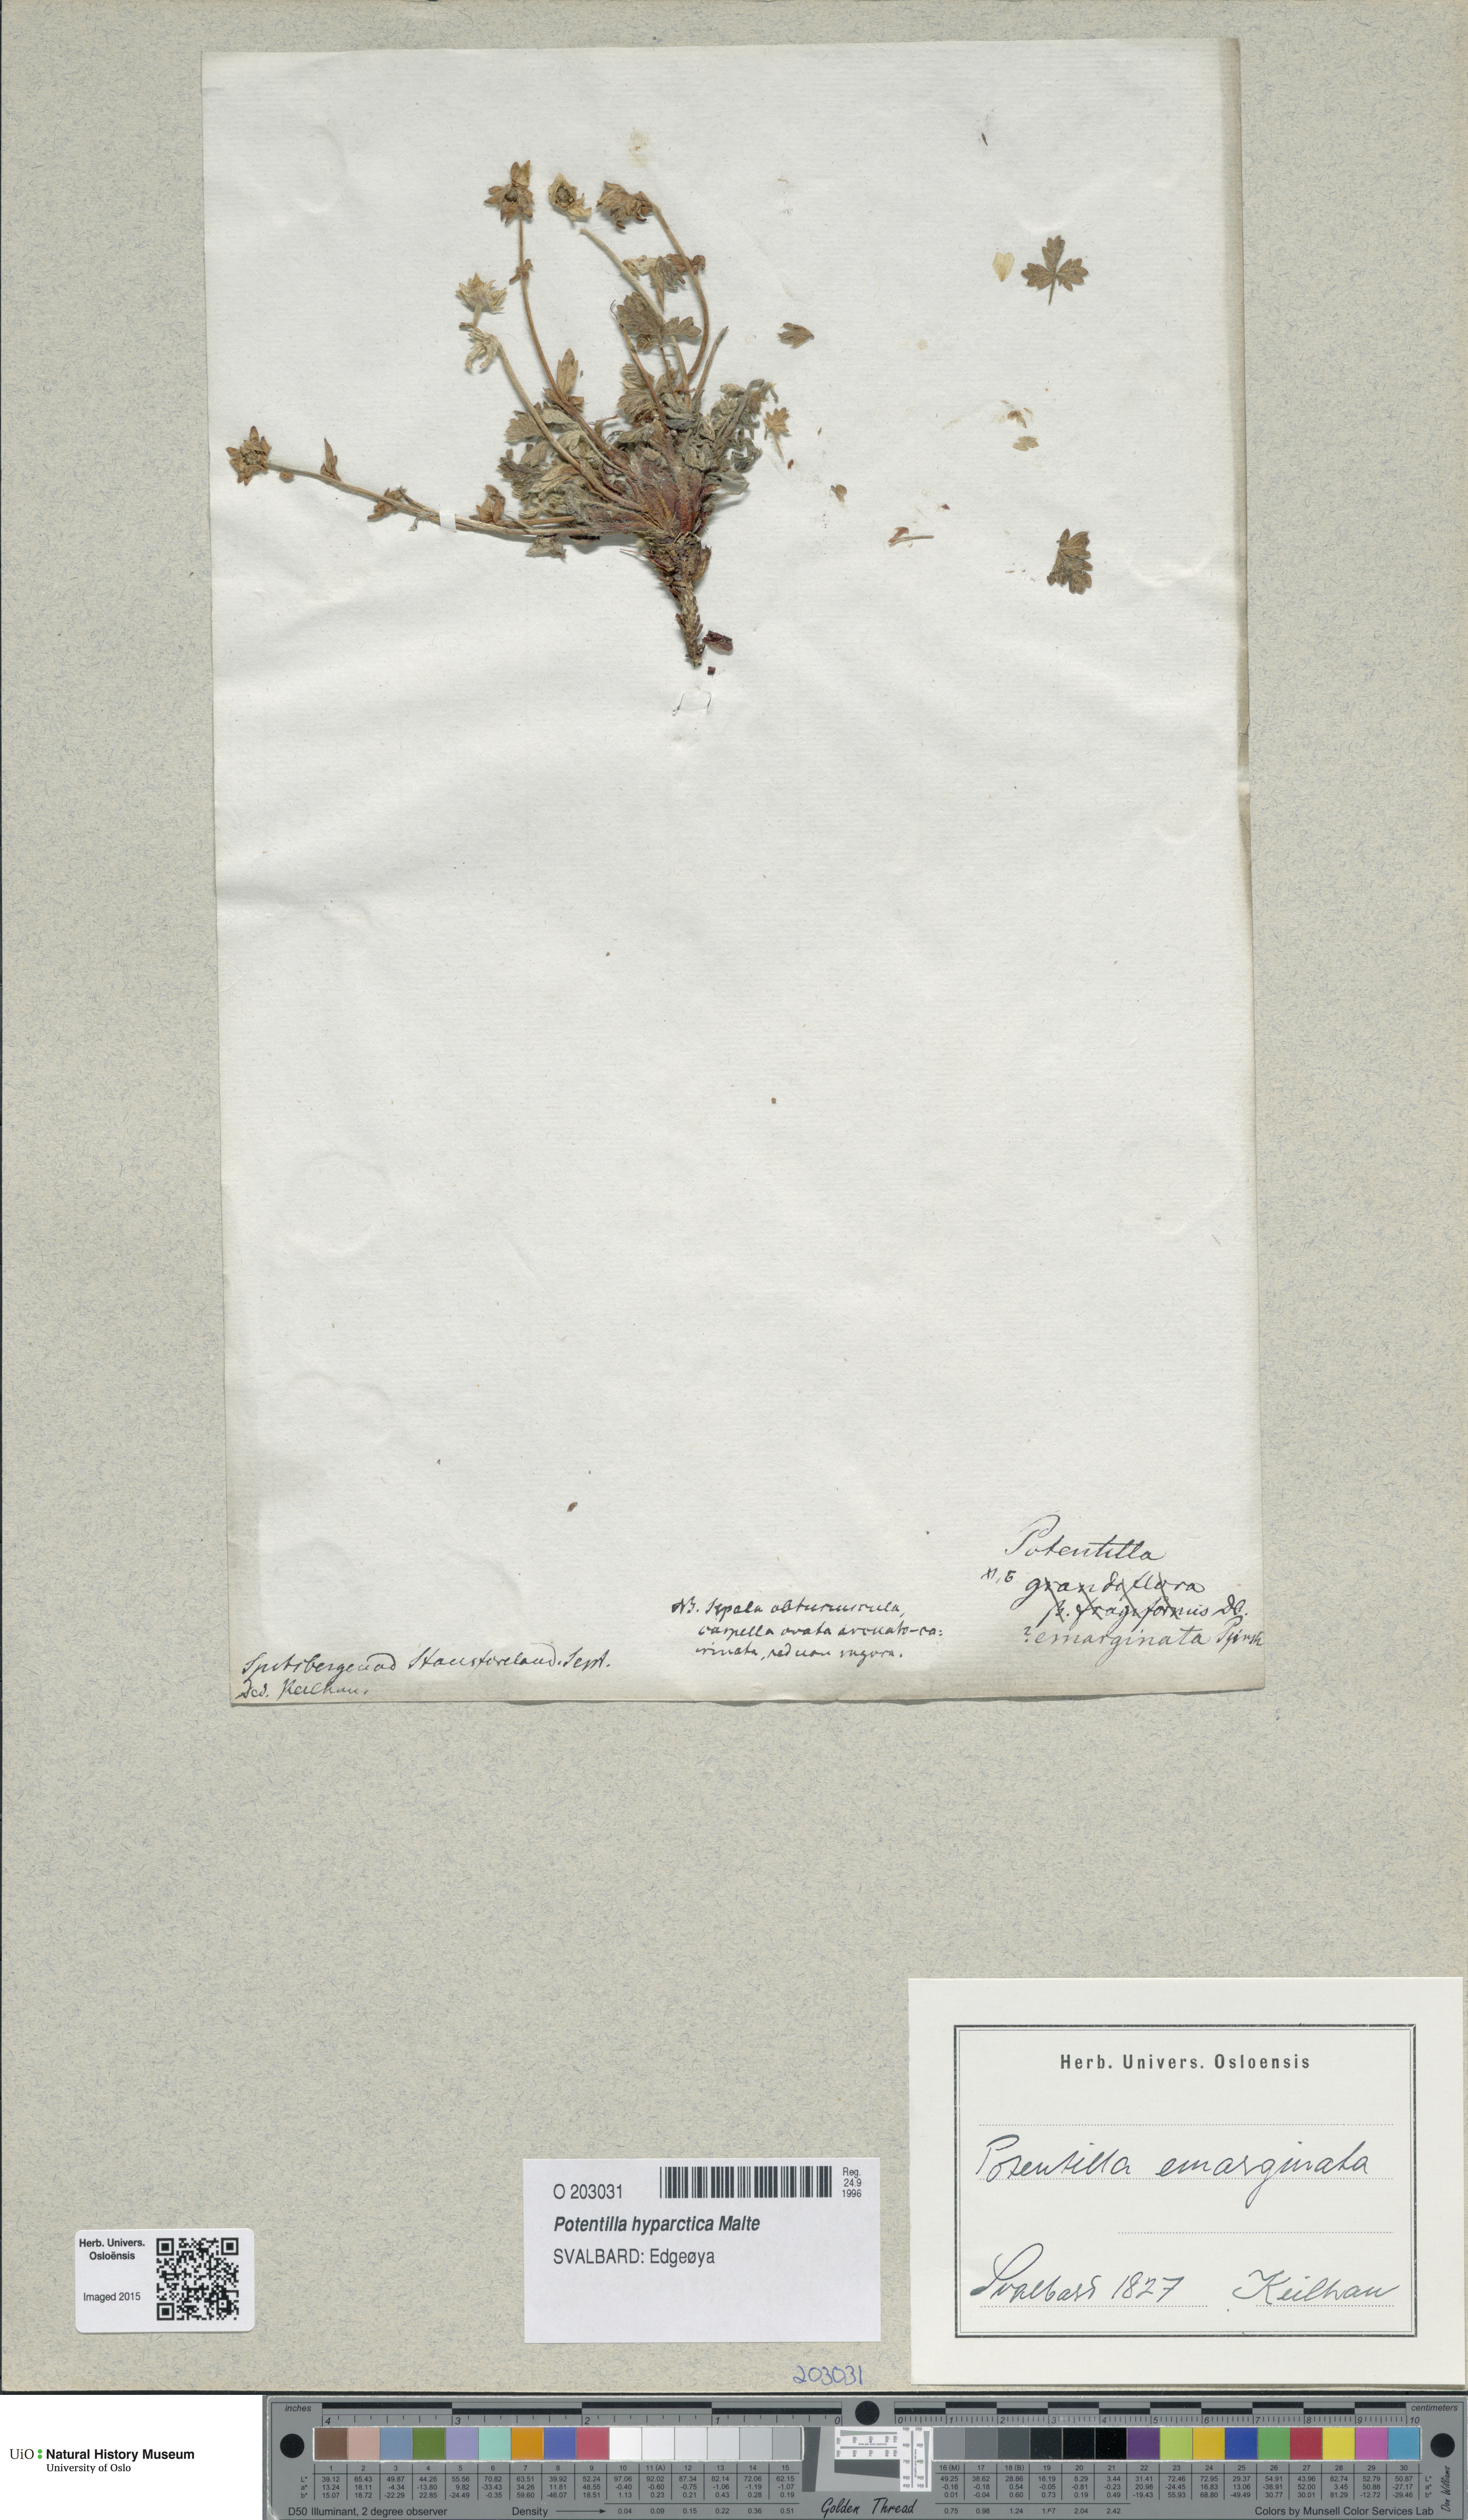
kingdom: Plantae
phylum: Tracheophyta
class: Magnoliopsida
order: Rosales
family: Rosaceae
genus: Potentilla
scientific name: Potentilla hyparctica
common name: Arctic cinquefoil
